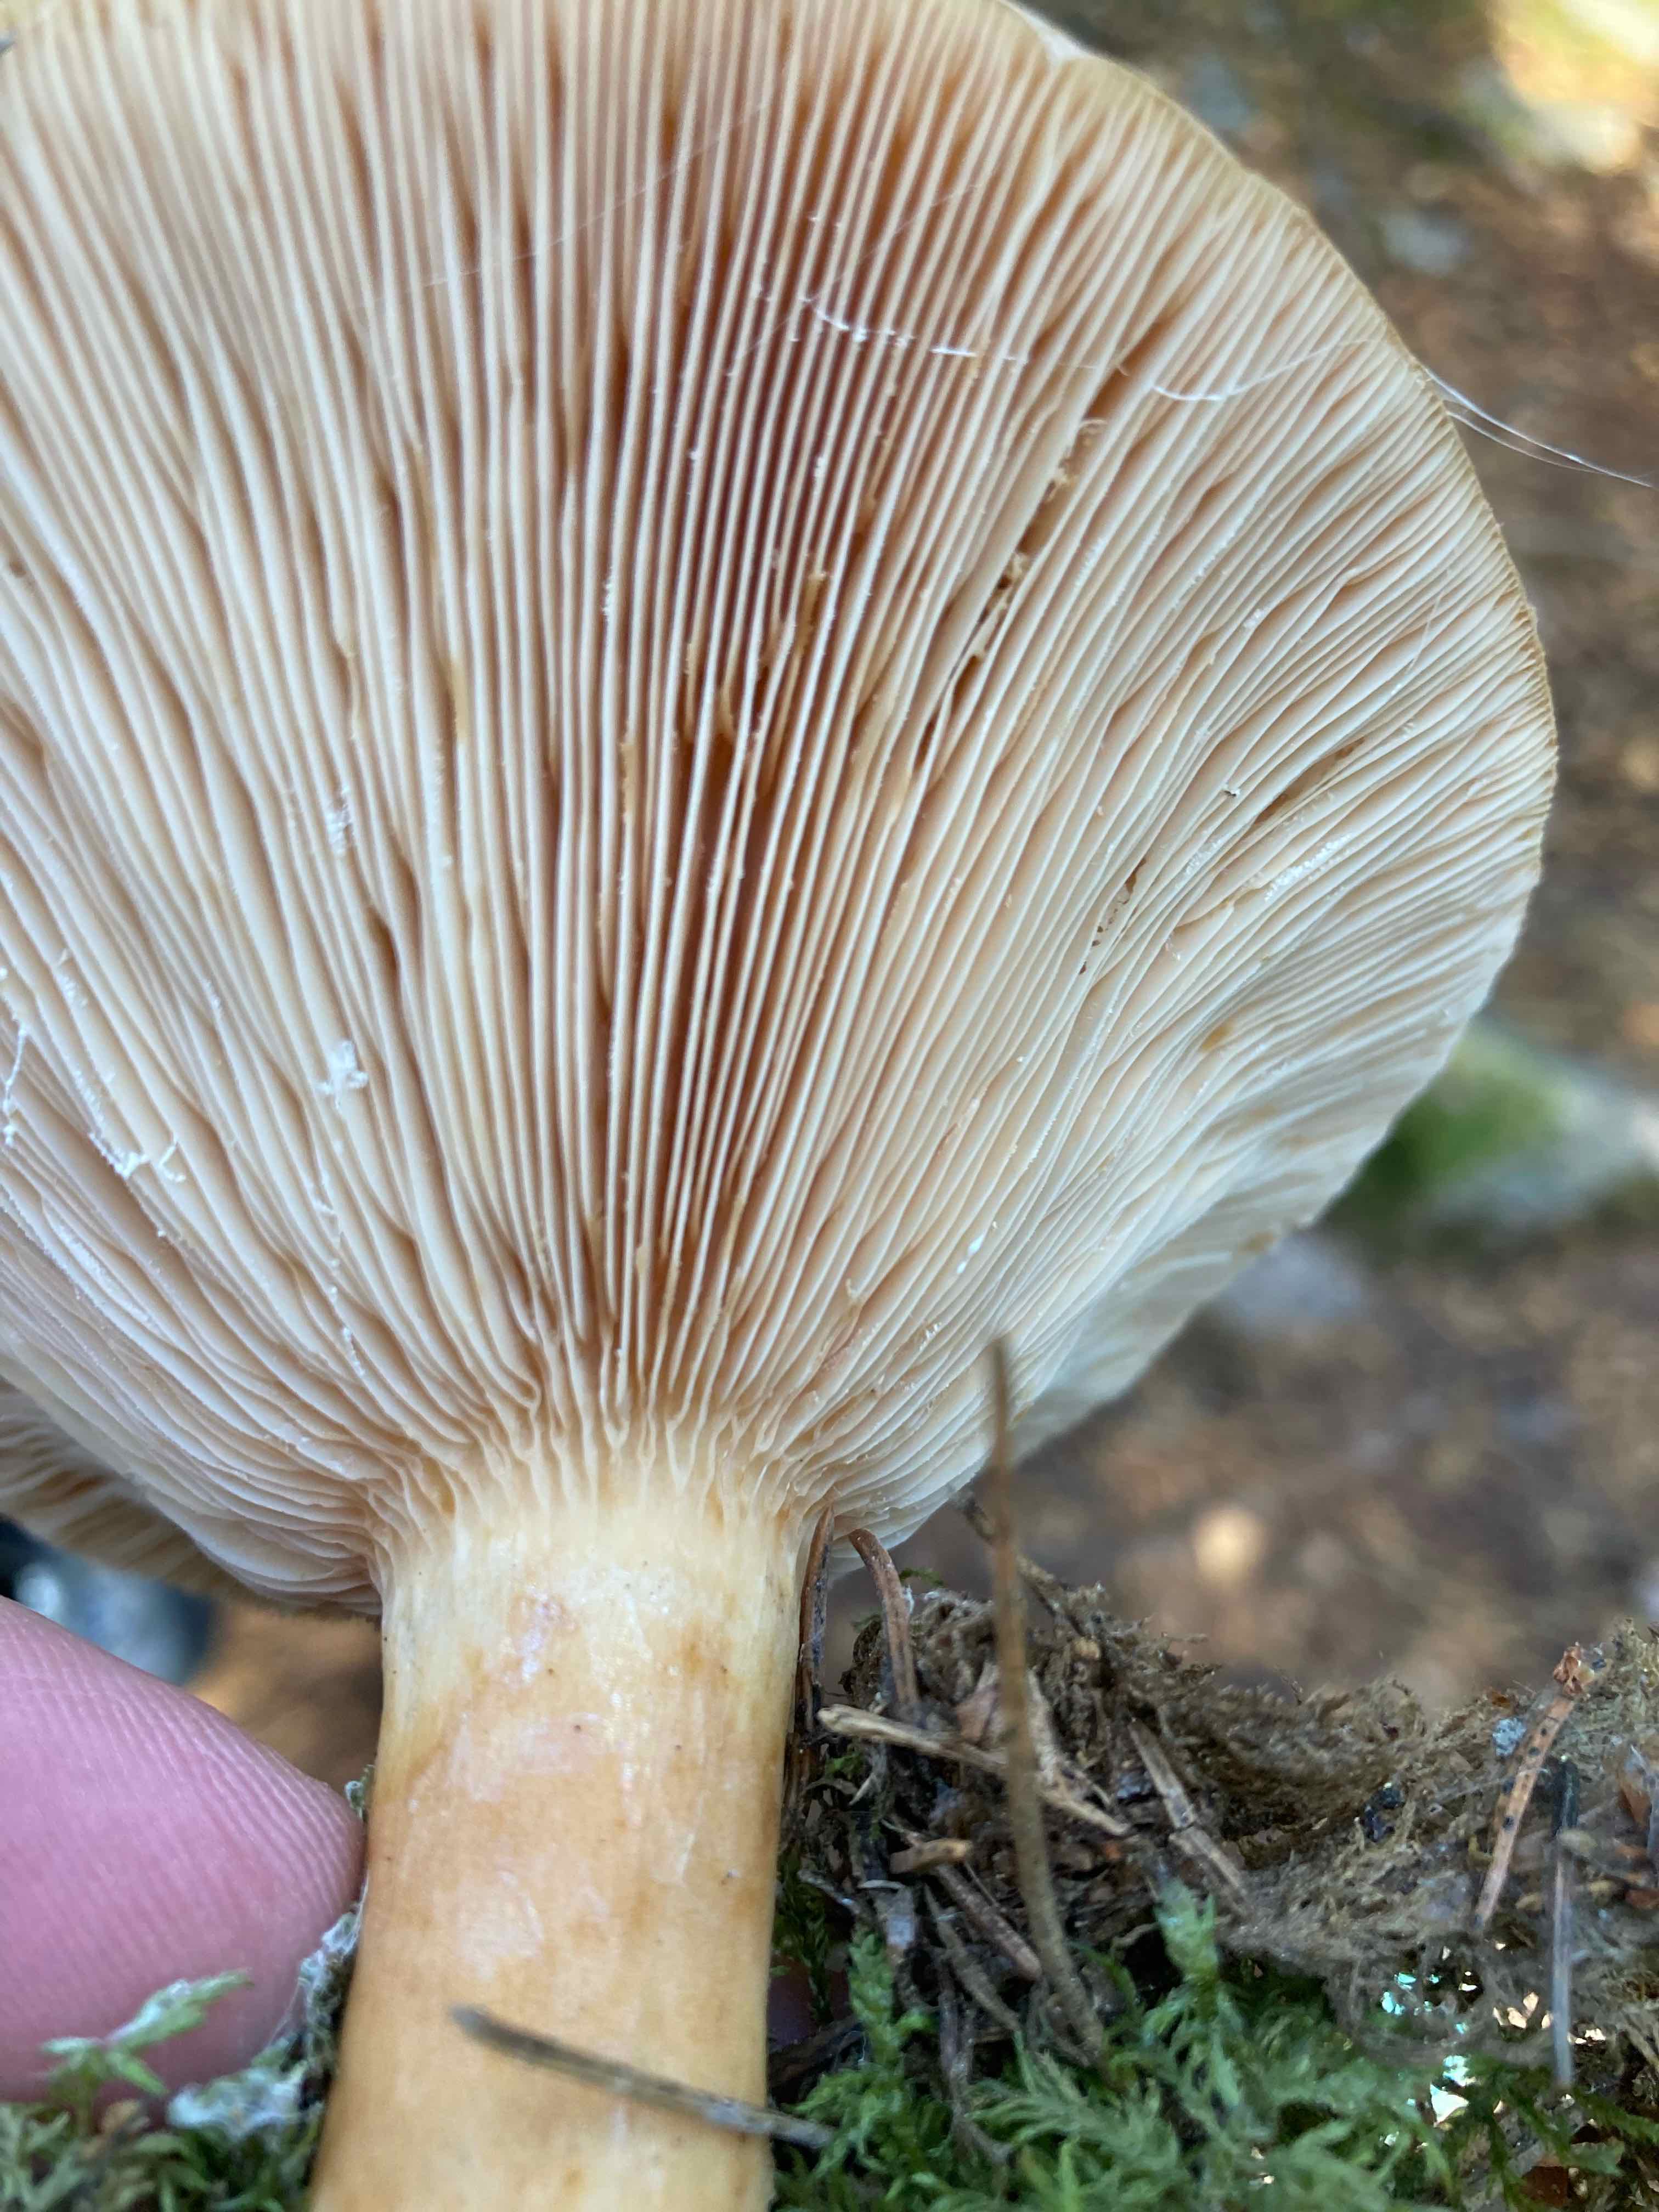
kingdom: Fungi
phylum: Basidiomycota
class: Agaricomycetes
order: Russulales
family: Russulaceae
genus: Lactarius
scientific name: Lactarius torminosus
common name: skægget mælkehat
